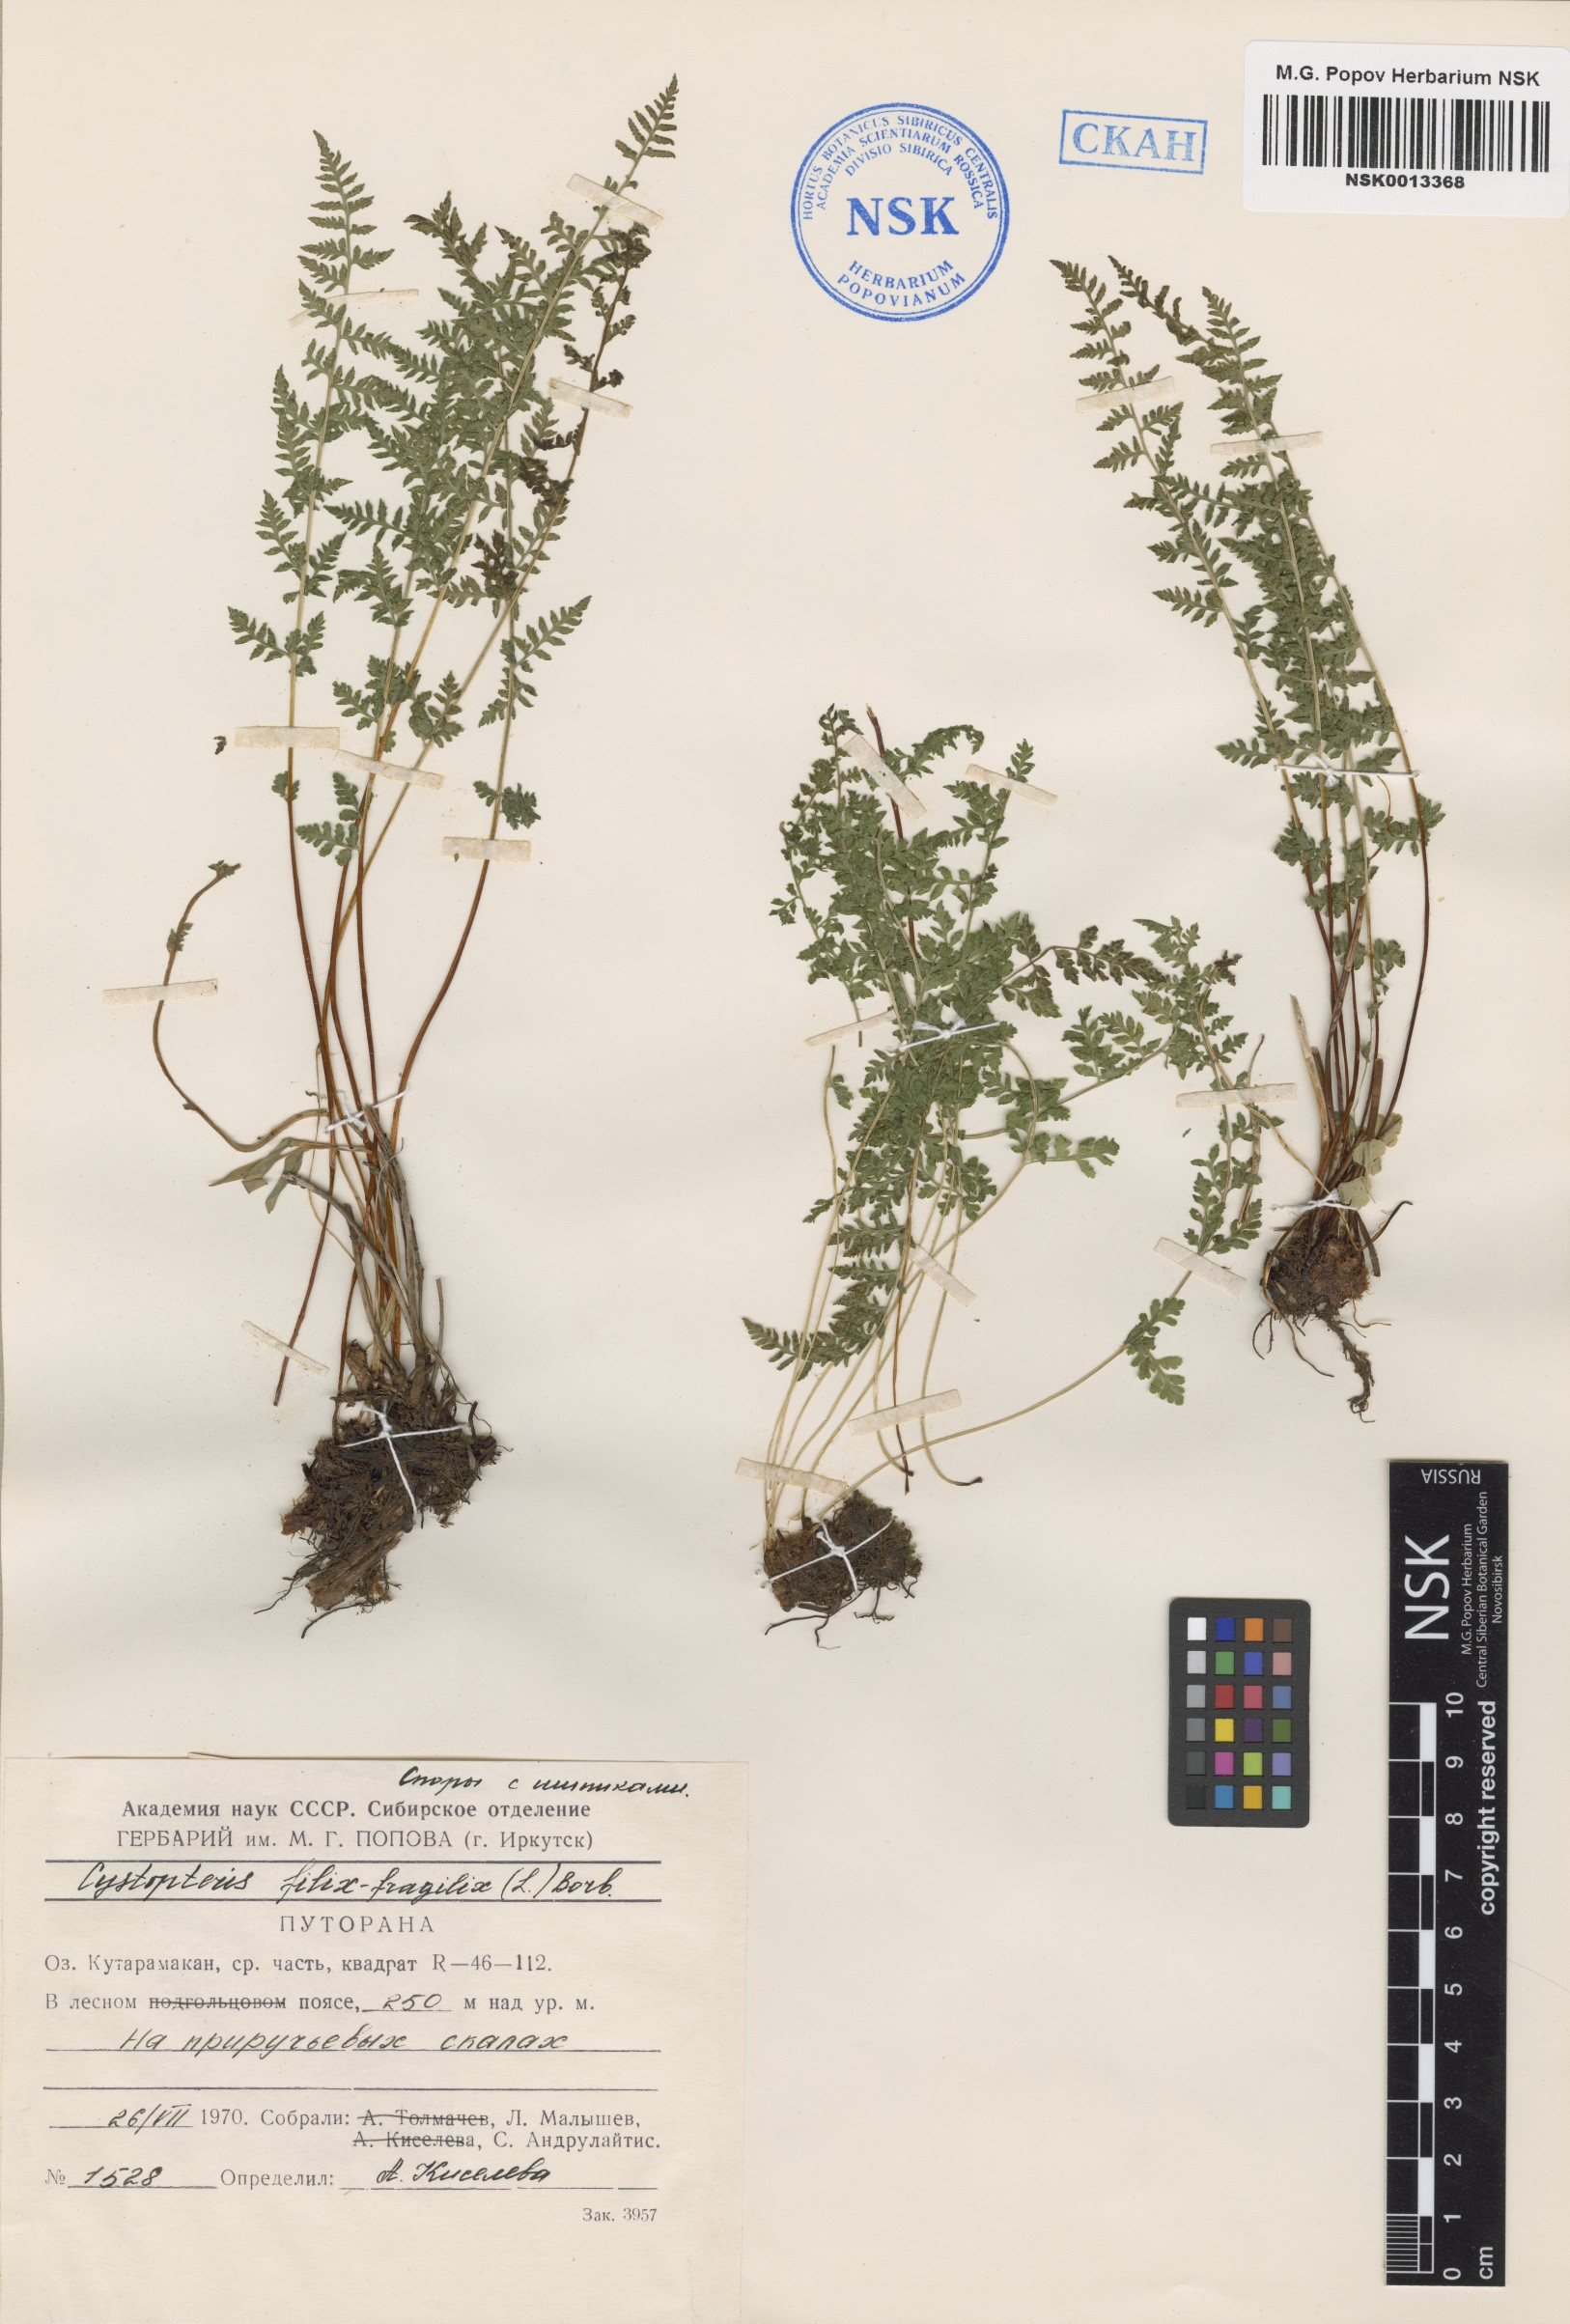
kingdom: Plantae
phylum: Tracheophyta
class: Polypodiopsida
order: Polypodiales
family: Cystopteridaceae
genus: Cystopteris
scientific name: Cystopteris fragilis
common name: Brittle bladder fern
